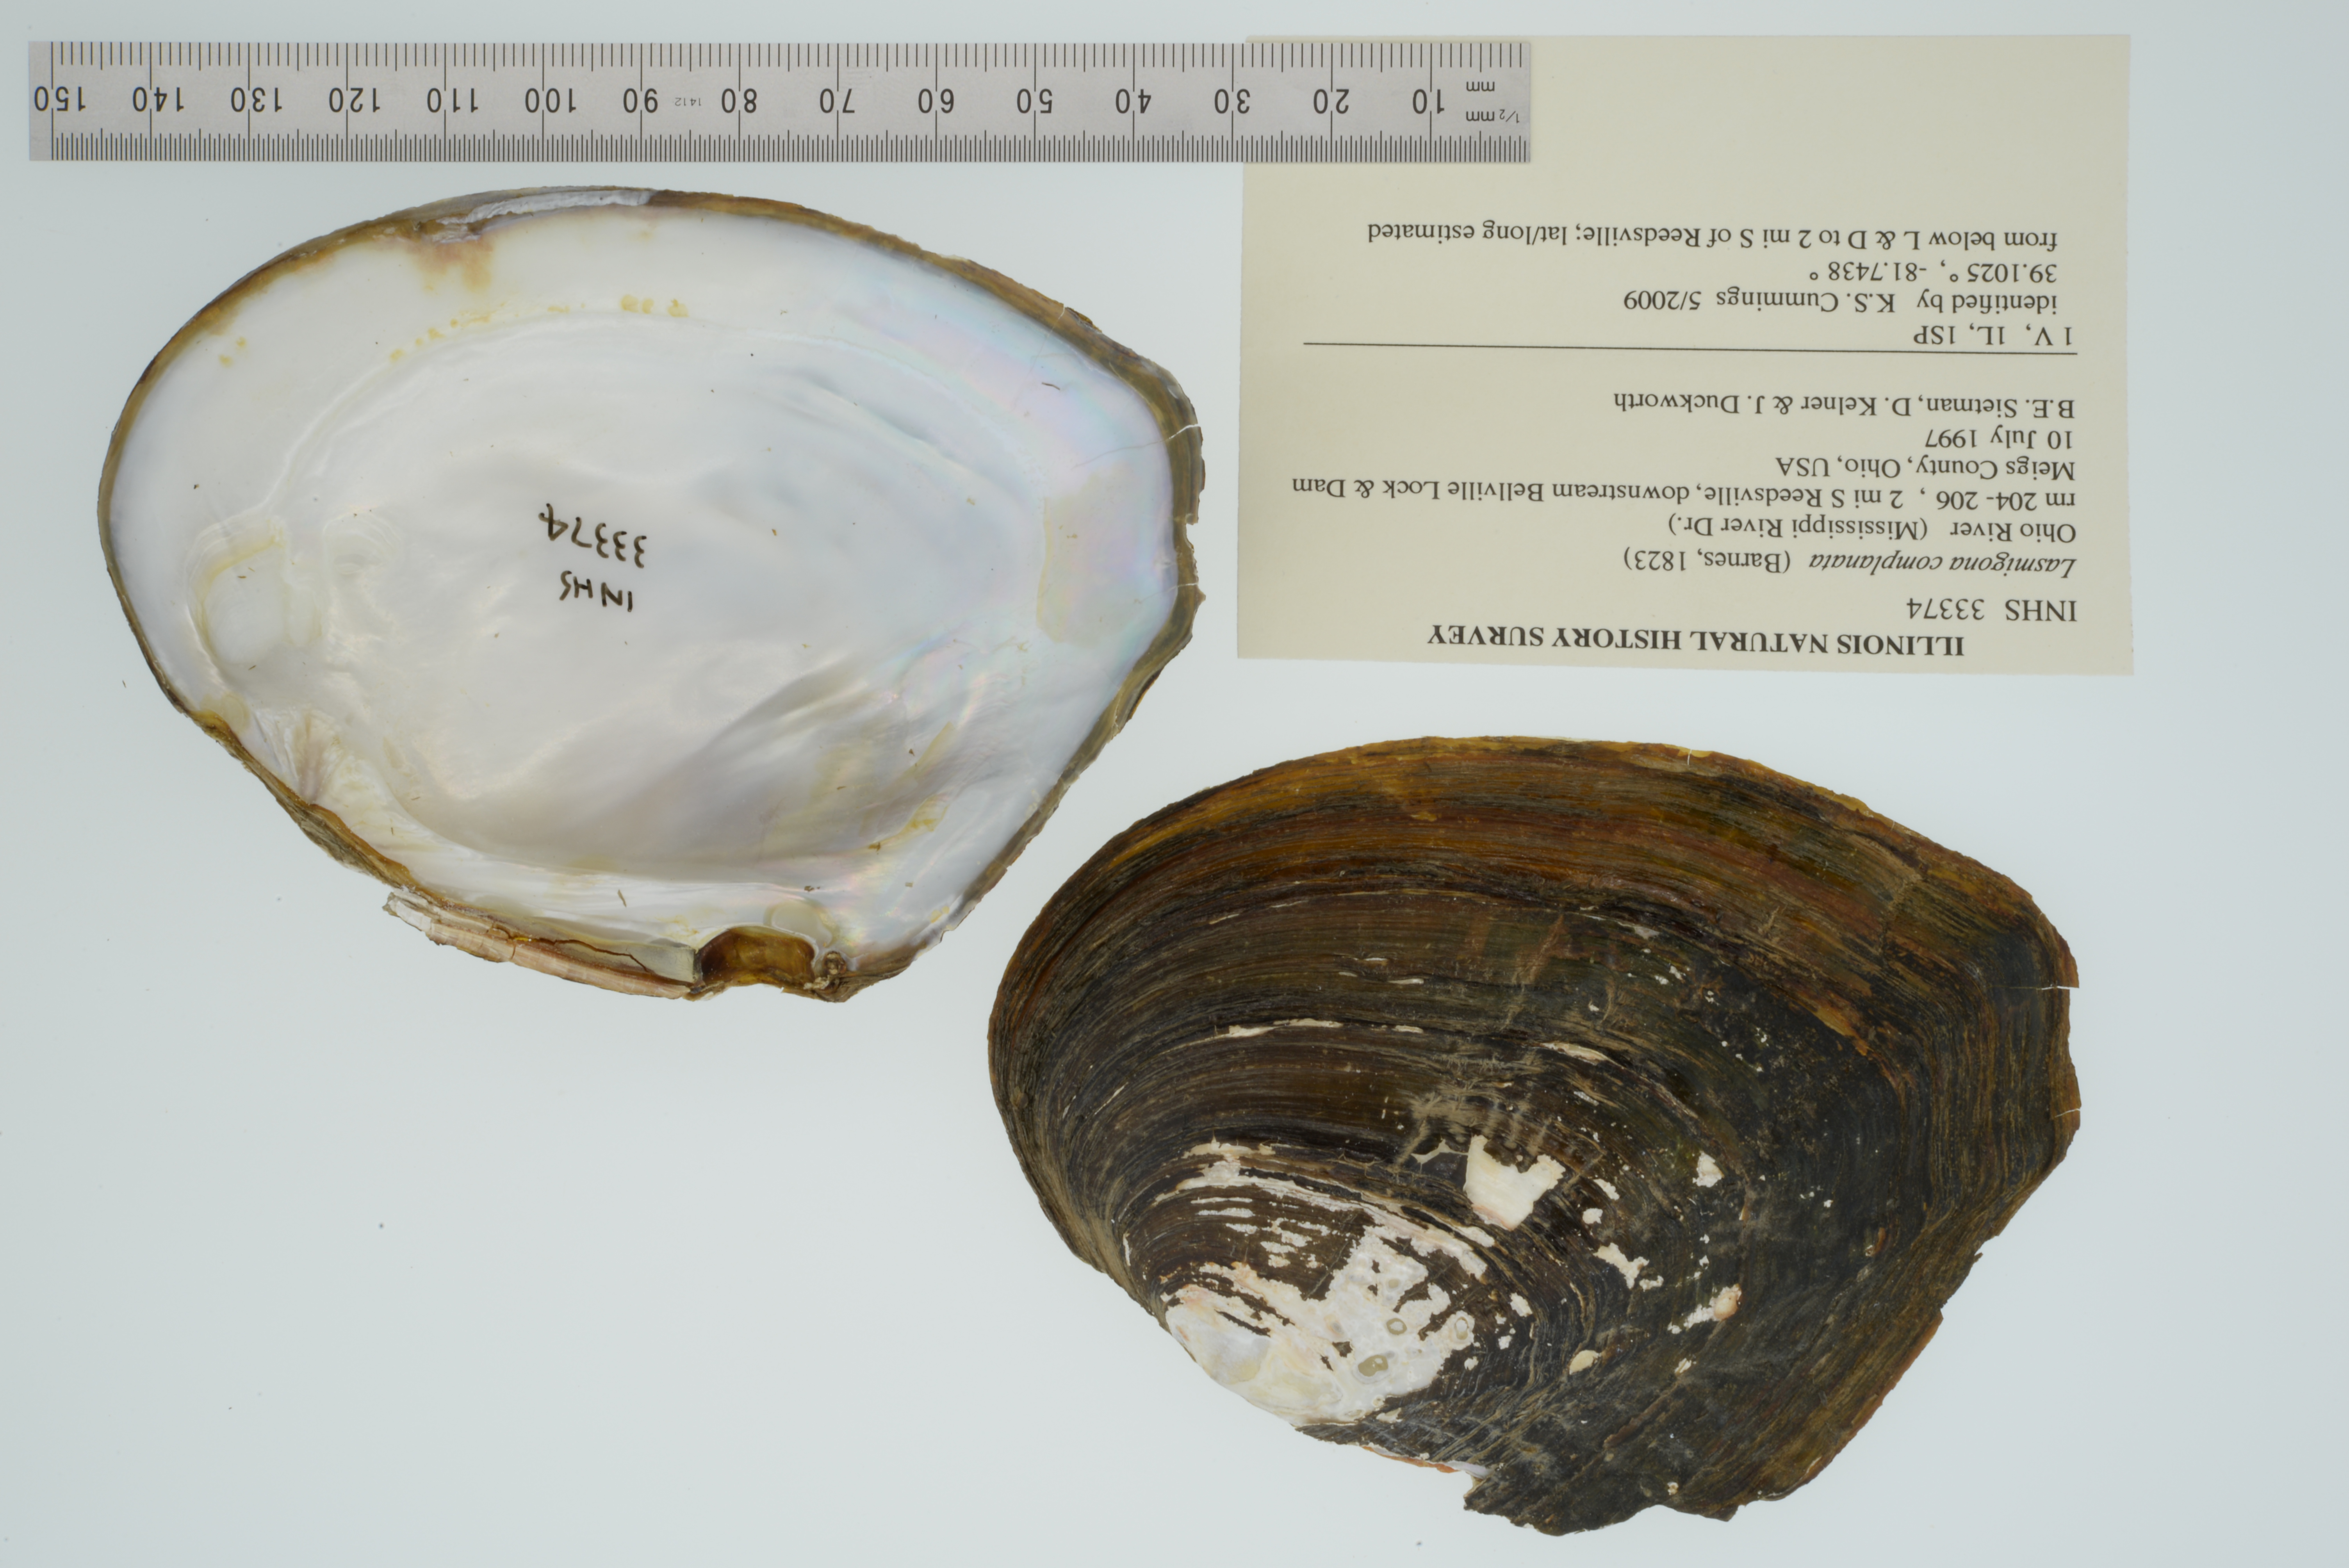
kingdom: Animalia
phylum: Mollusca
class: Bivalvia
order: Unionida
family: Unionidae
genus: Lasmigona
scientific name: Lasmigona complanata
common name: White heelsplitter
